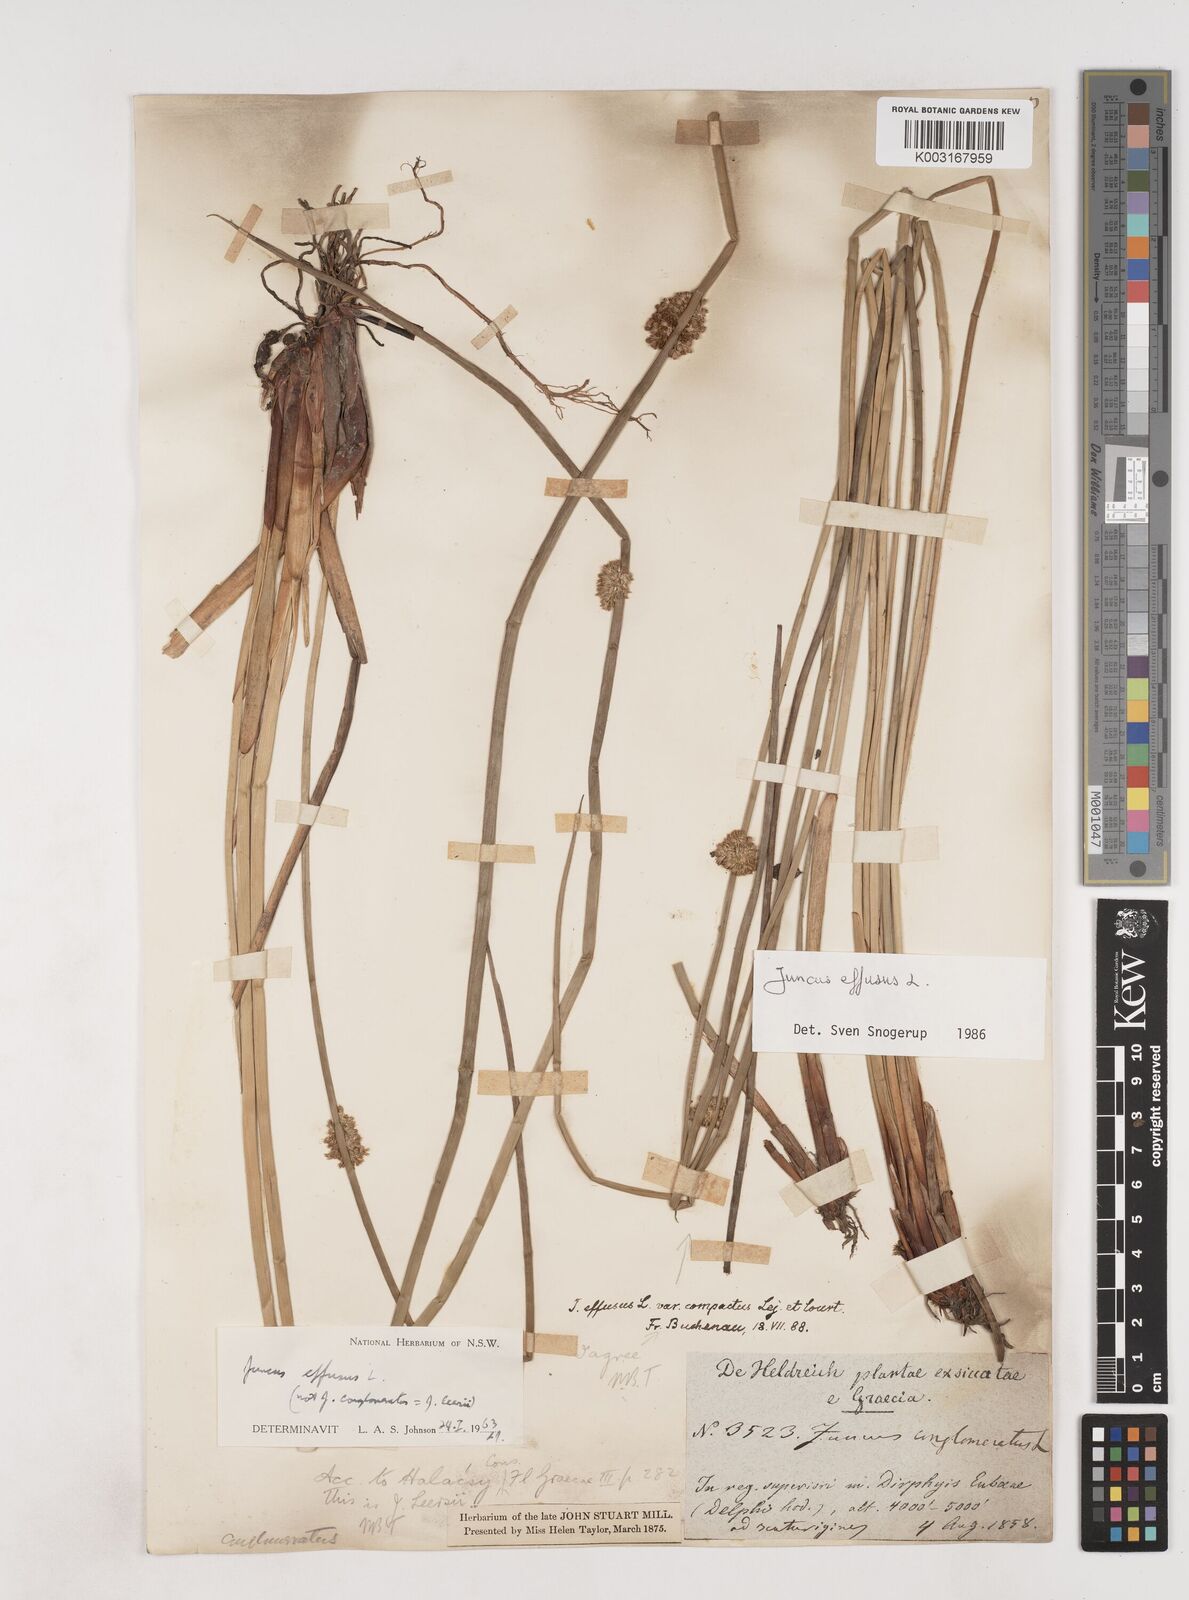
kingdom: Plantae
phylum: Tracheophyta
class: Liliopsida
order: Poales
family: Juncaceae
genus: Juncus
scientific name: Juncus effusus
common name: Soft rush
